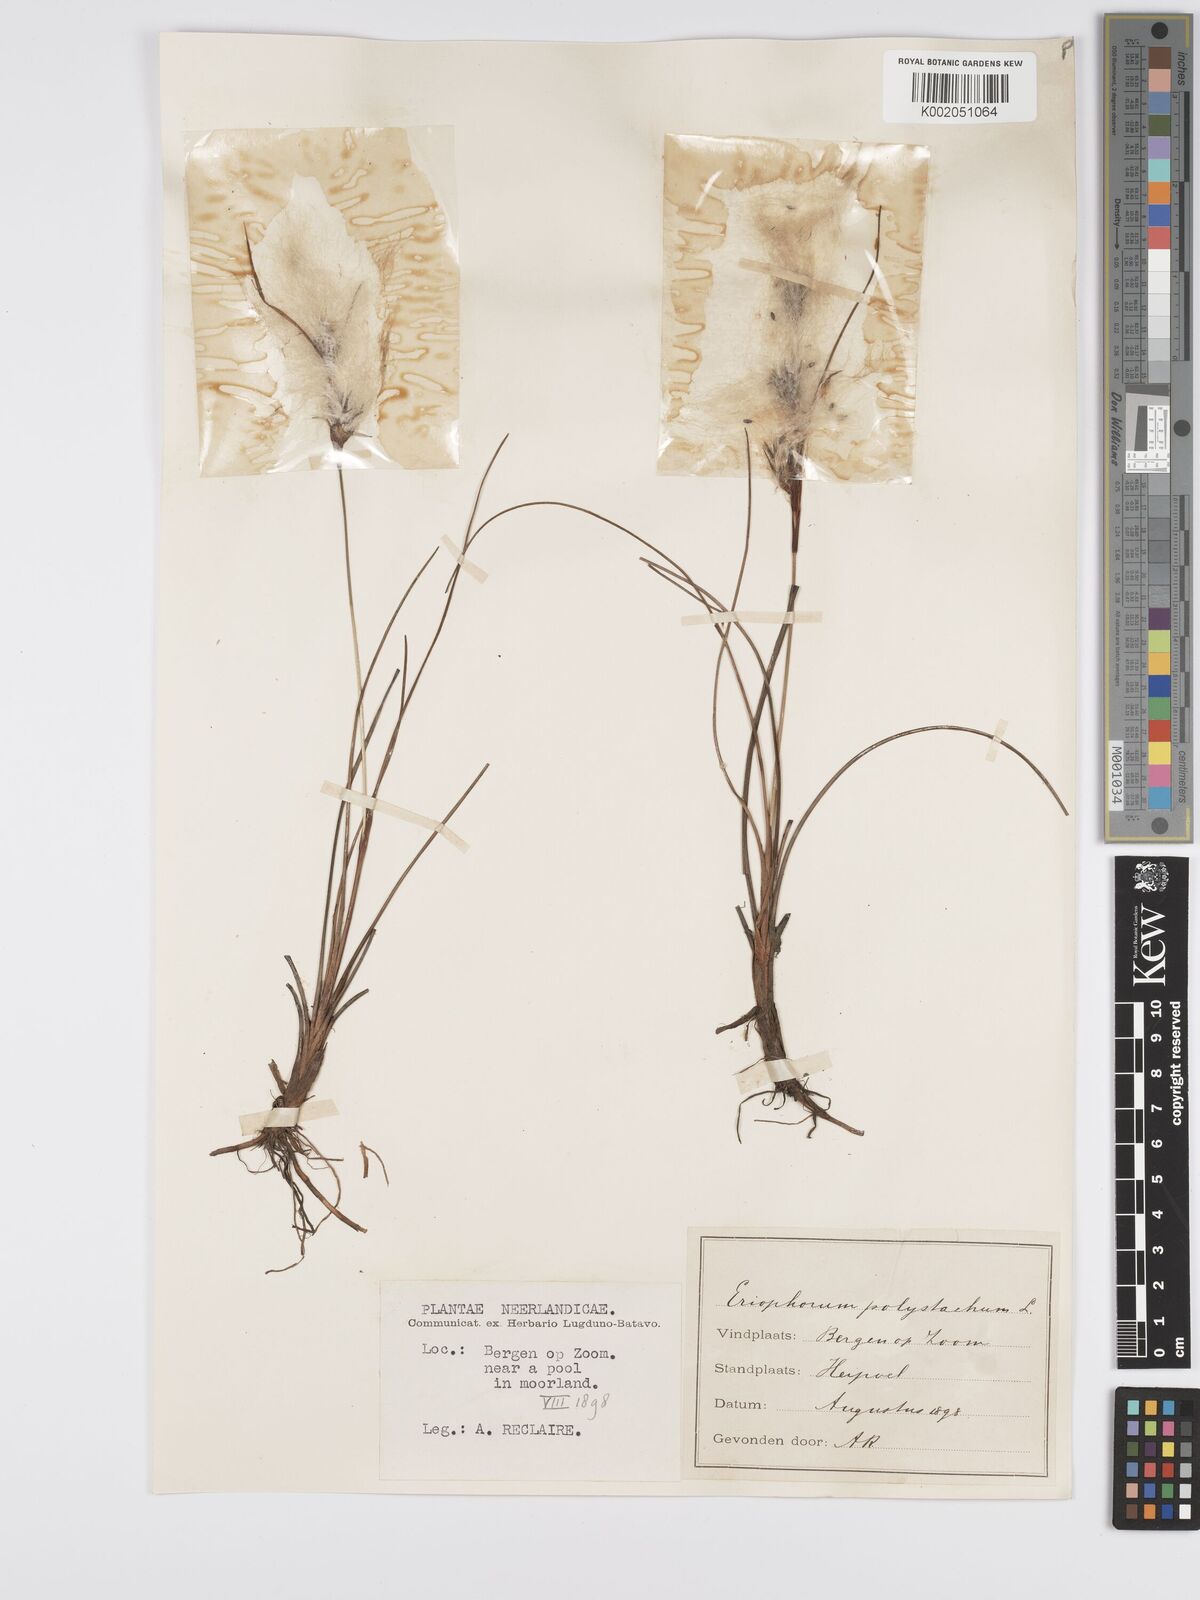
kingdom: Plantae
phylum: Tracheophyta
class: Liliopsida
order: Poales
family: Cyperaceae
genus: Eriophorum
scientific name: Eriophorum angustifolium
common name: Common cottongrass
